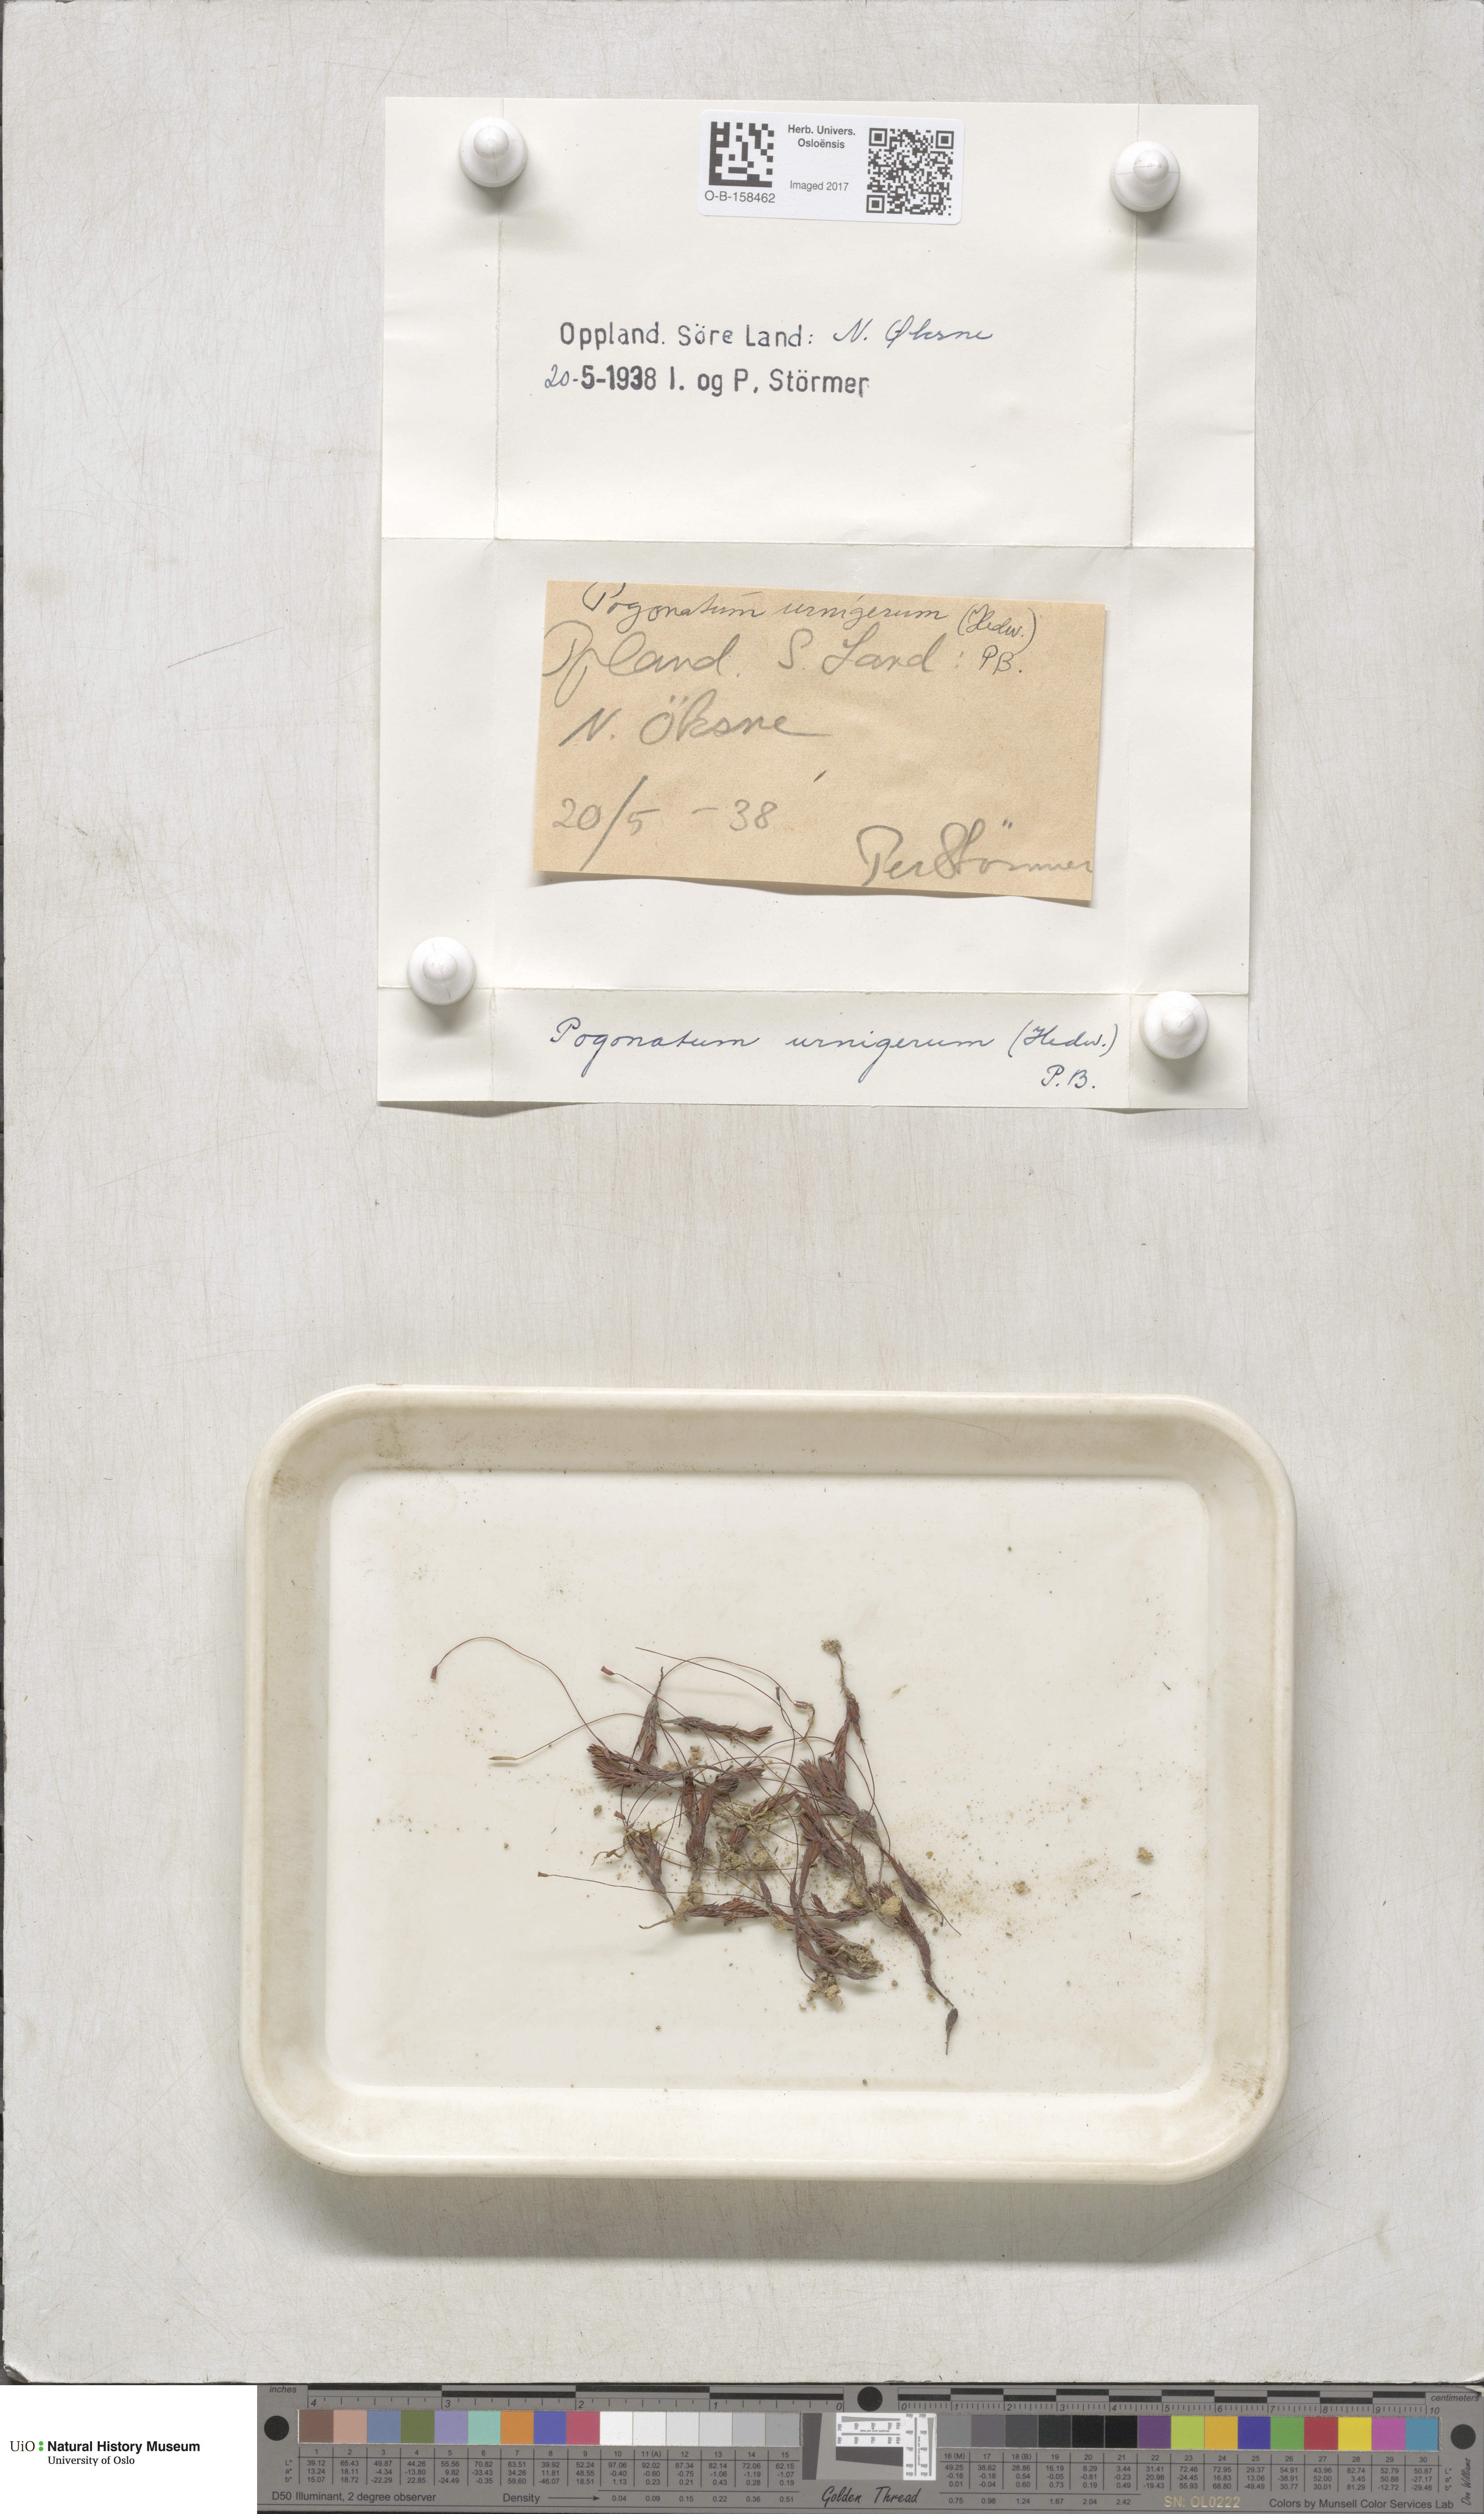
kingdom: Plantae
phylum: Bryophyta
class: Polytrichopsida
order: Polytrichales
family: Polytrichaceae
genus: Pogonatum
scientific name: Pogonatum urnigerum
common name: Urn hair moss
